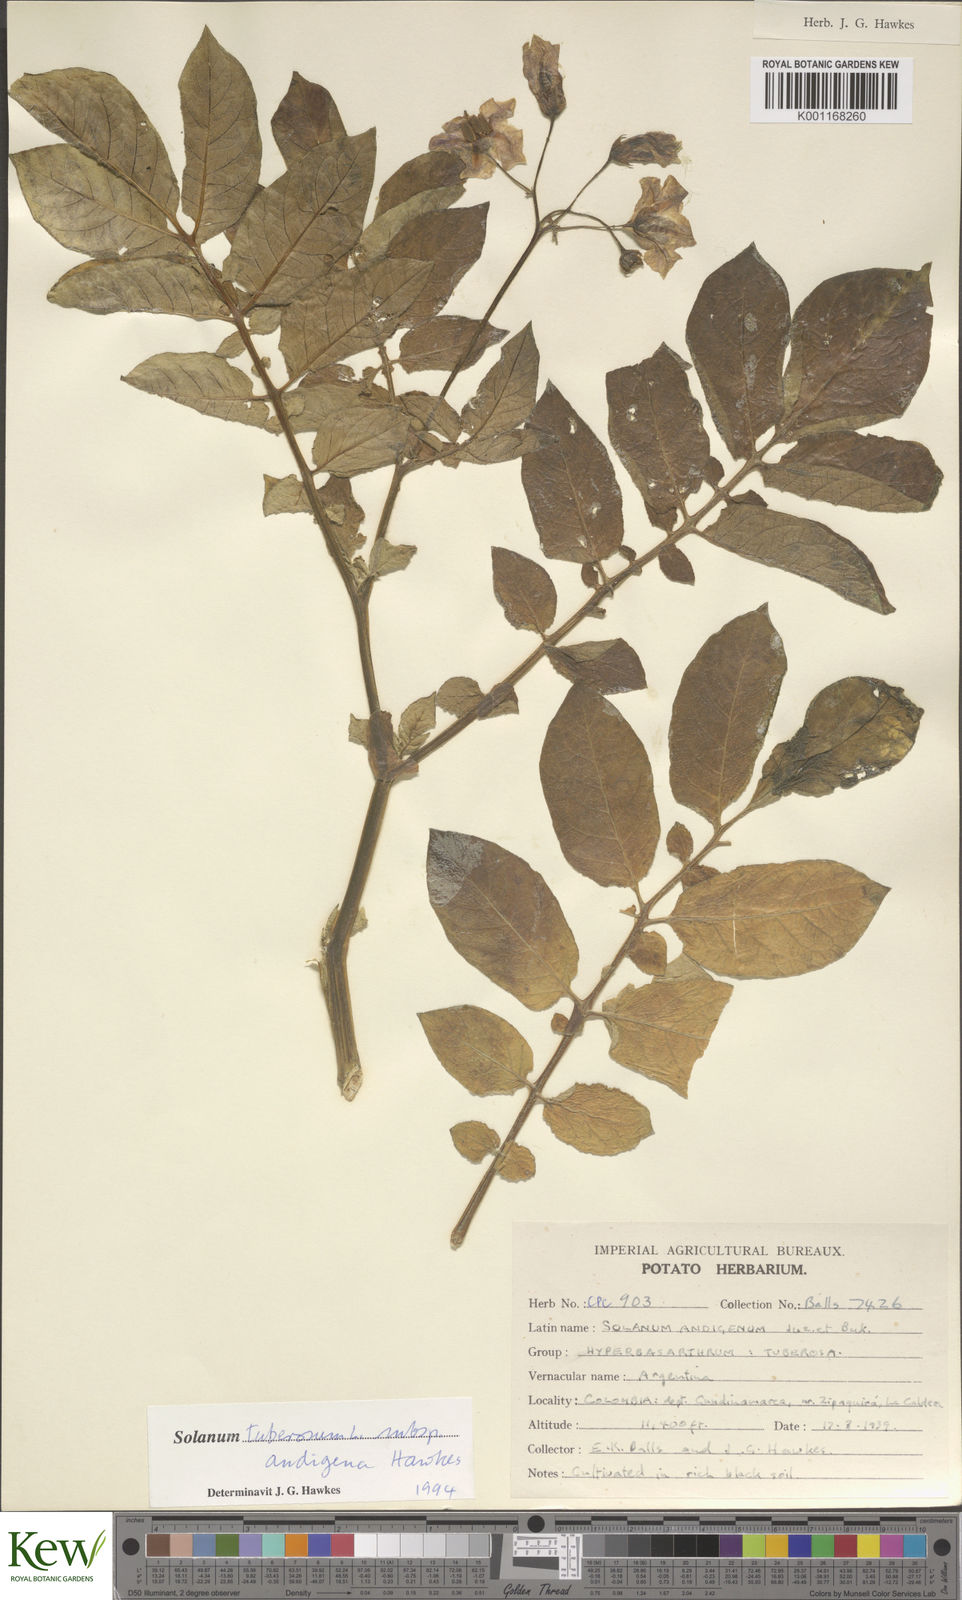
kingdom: Plantae
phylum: Tracheophyta
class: Magnoliopsida
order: Solanales
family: Solanaceae
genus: Solanum
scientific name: Solanum tuberosum
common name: Potato
